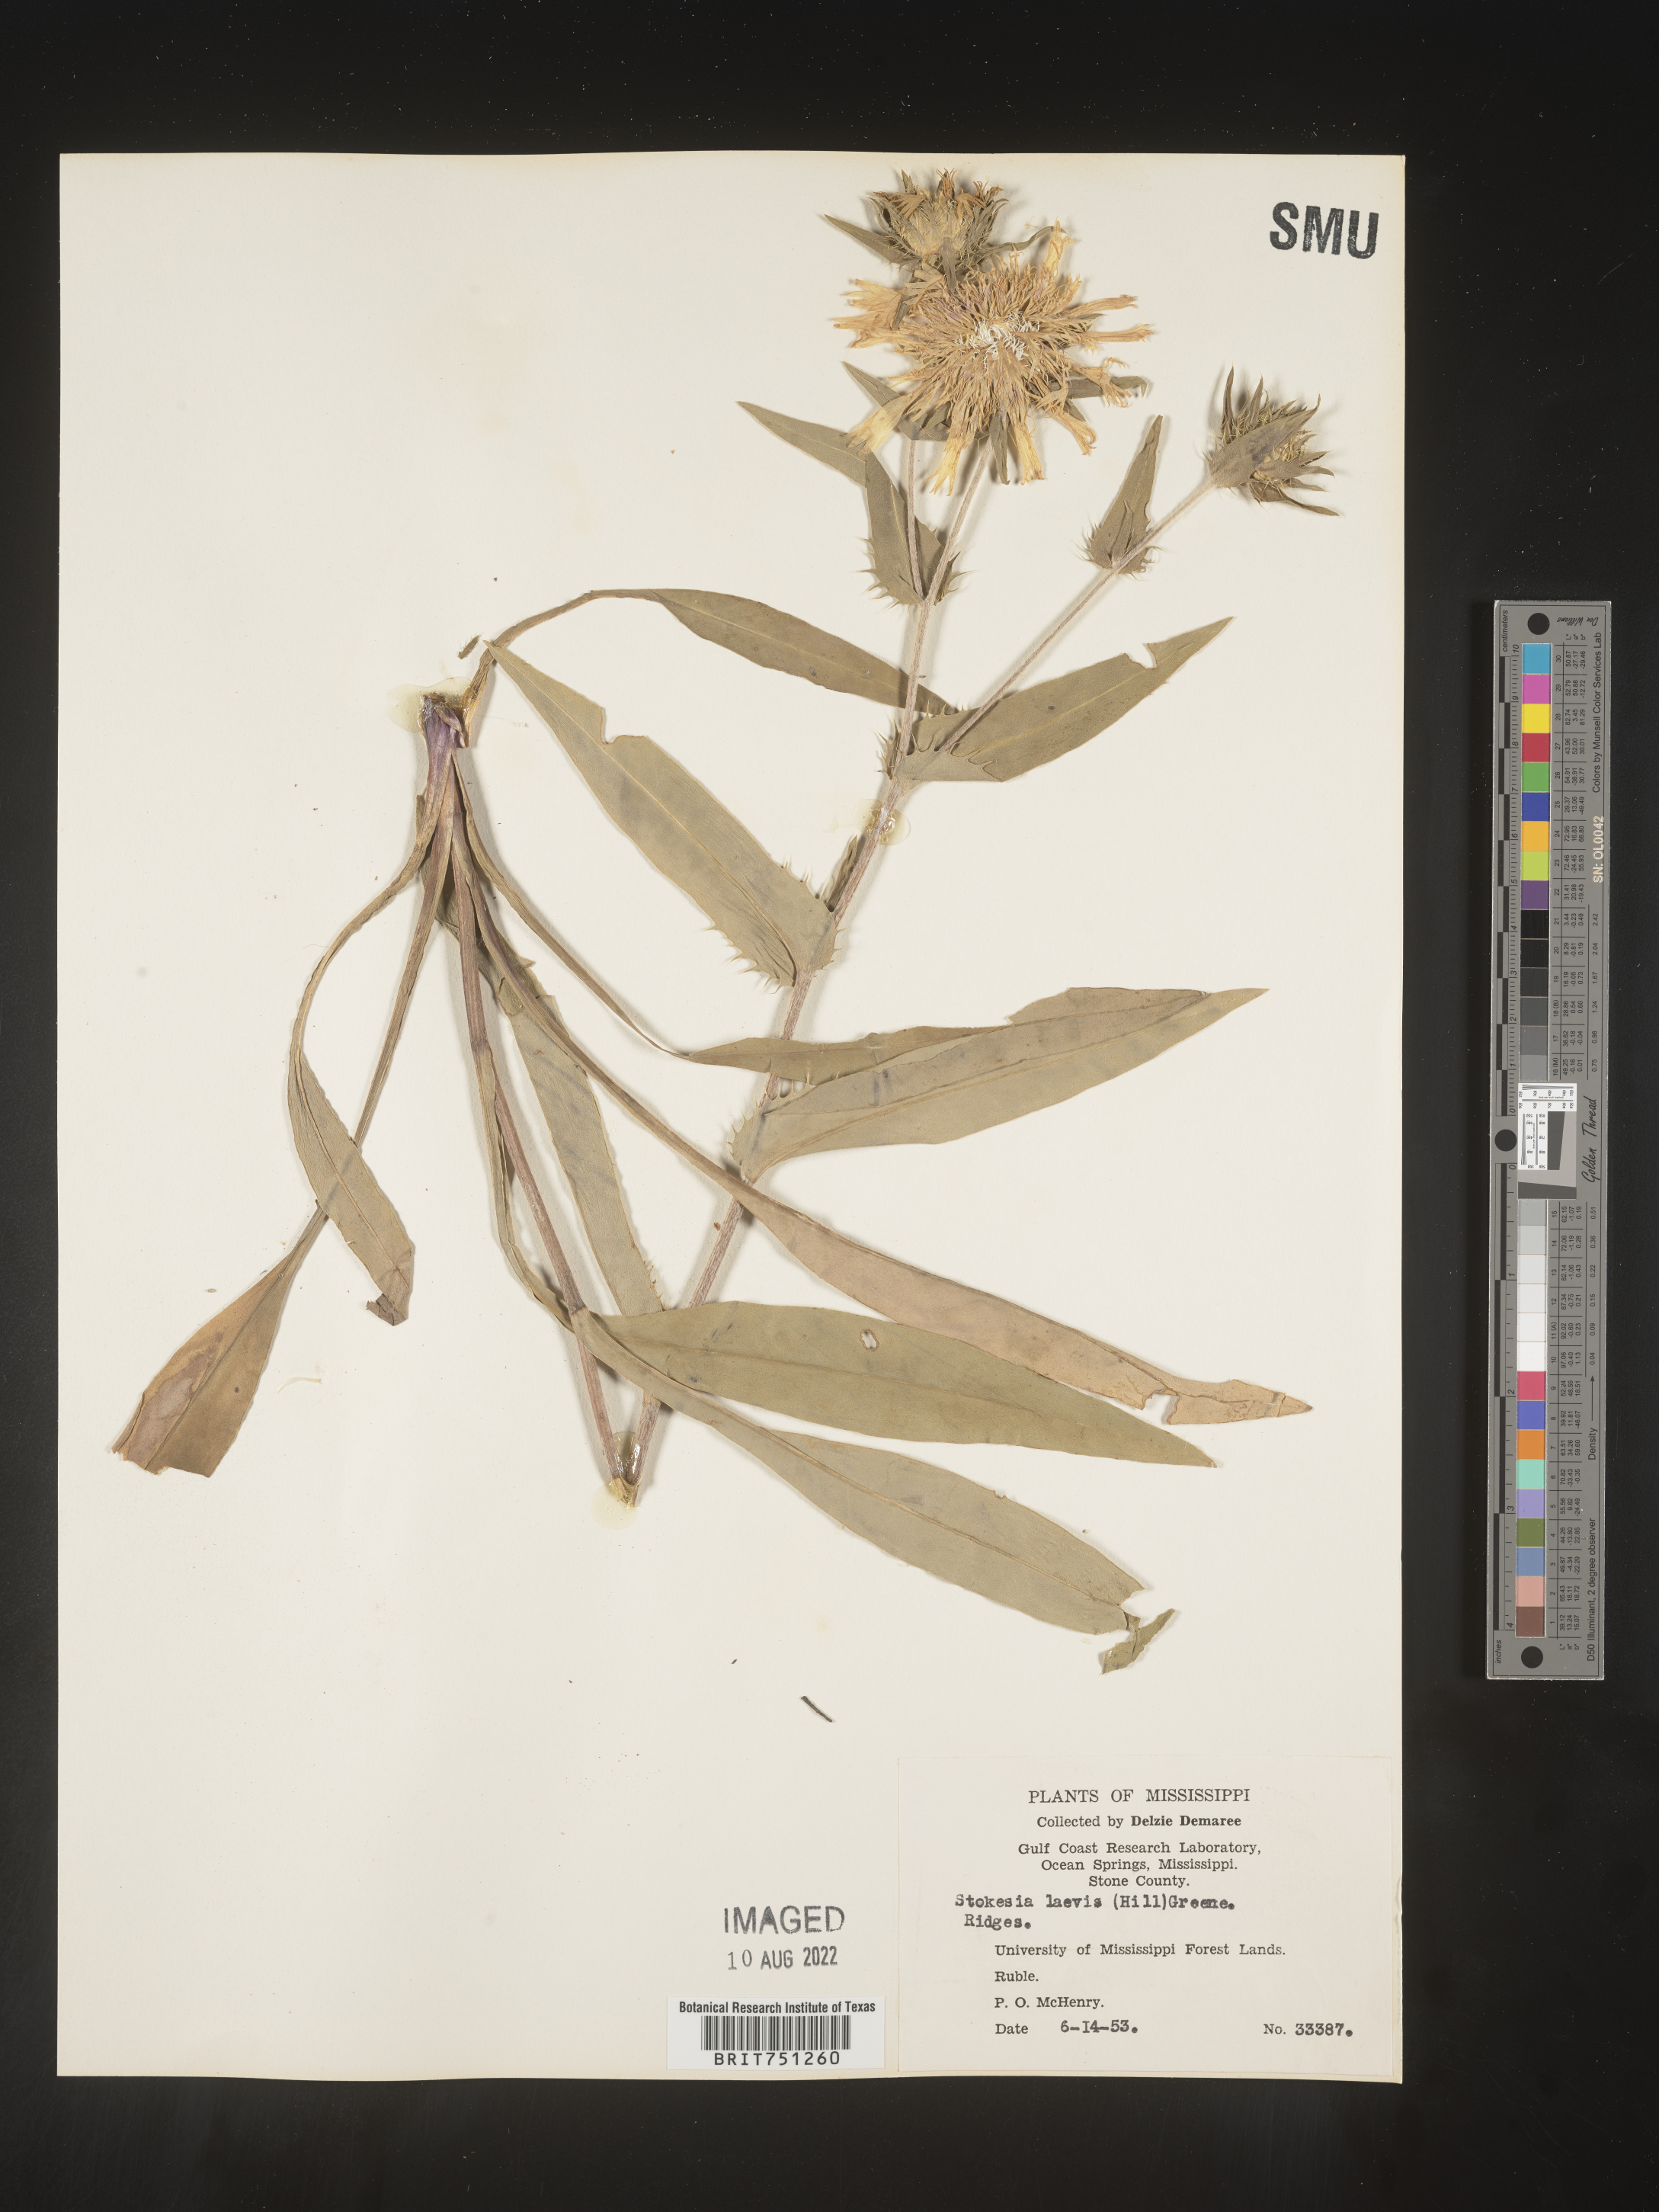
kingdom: Plantae
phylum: Tracheophyta
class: Magnoliopsida
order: Asterales
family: Asteraceae
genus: Stokesia
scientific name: Stokesia
